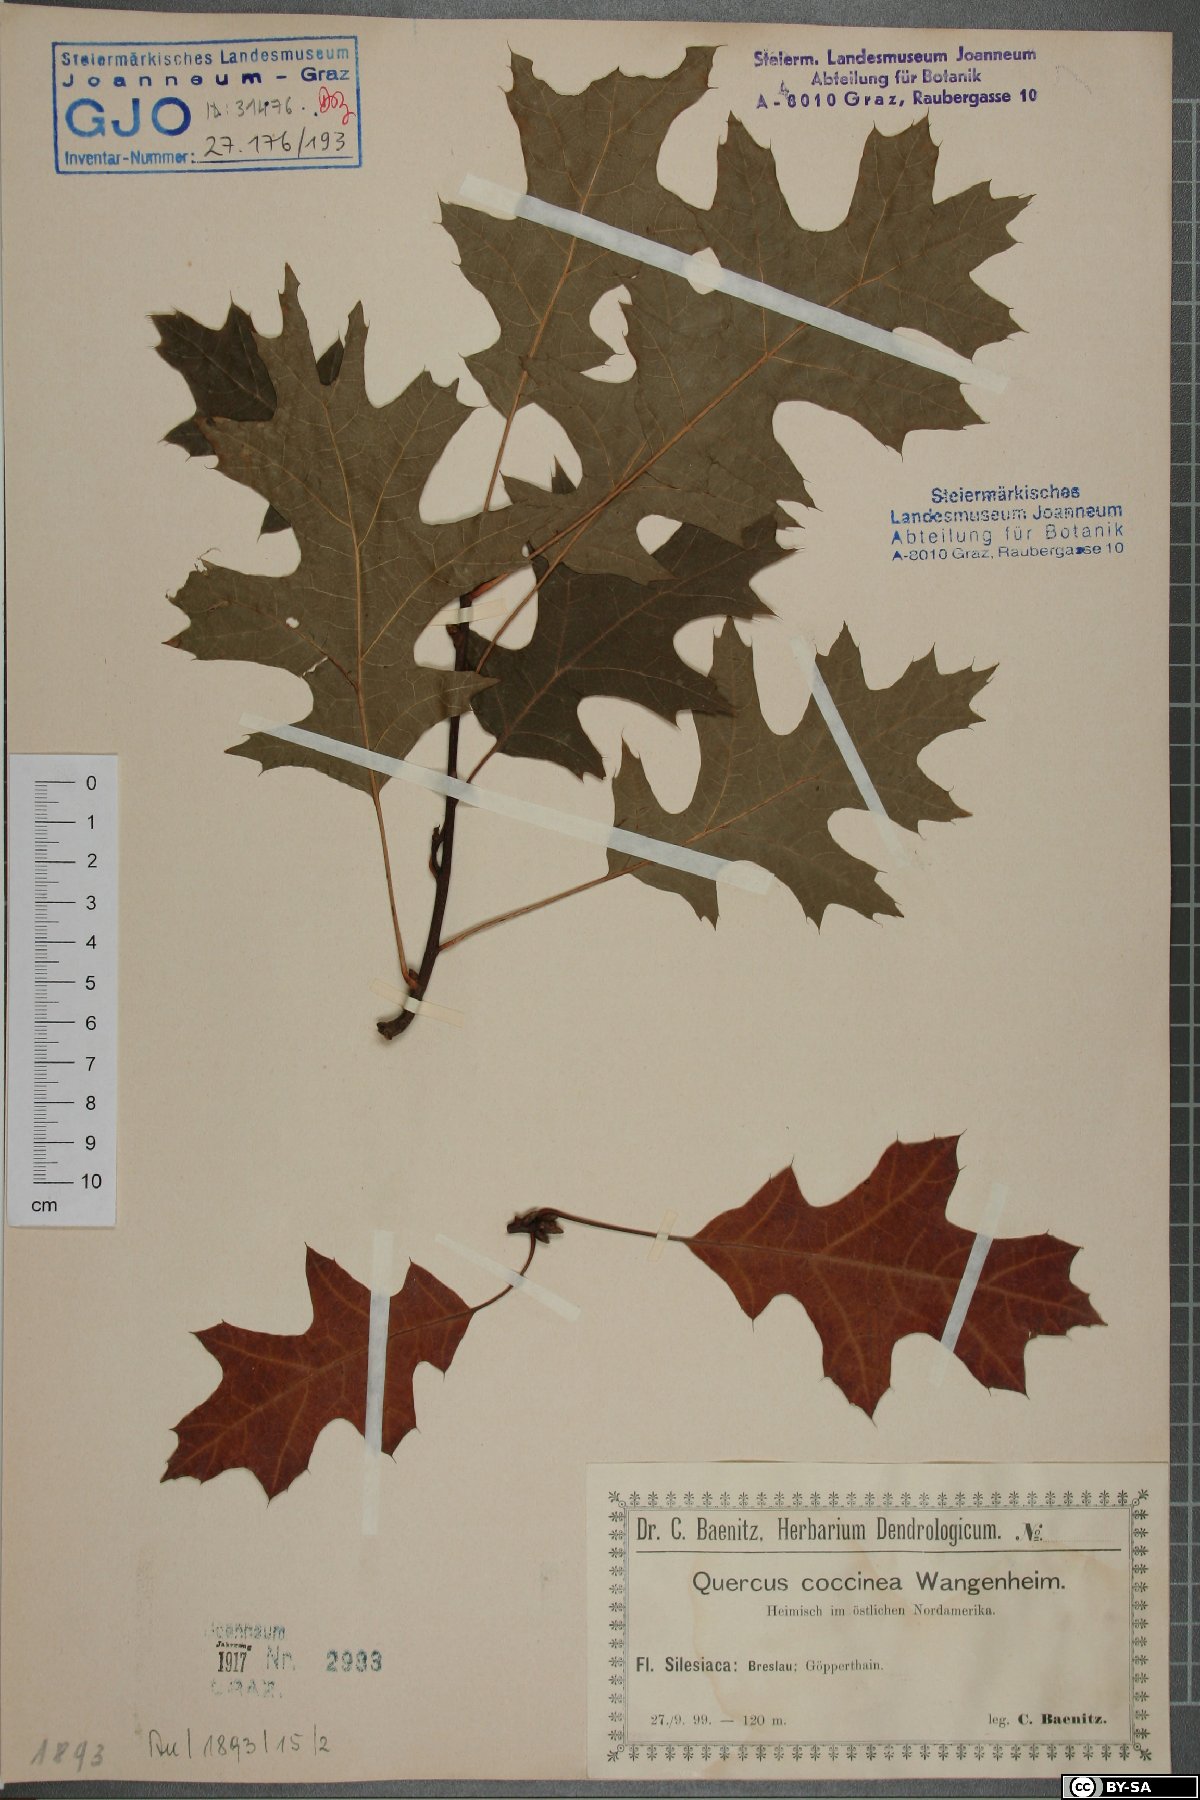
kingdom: Plantae
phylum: Tracheophyta
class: Magnoliopsida
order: Fagales
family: Fagaceae
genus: Quercus
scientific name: Quercus coccinea
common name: Scarlet oak
